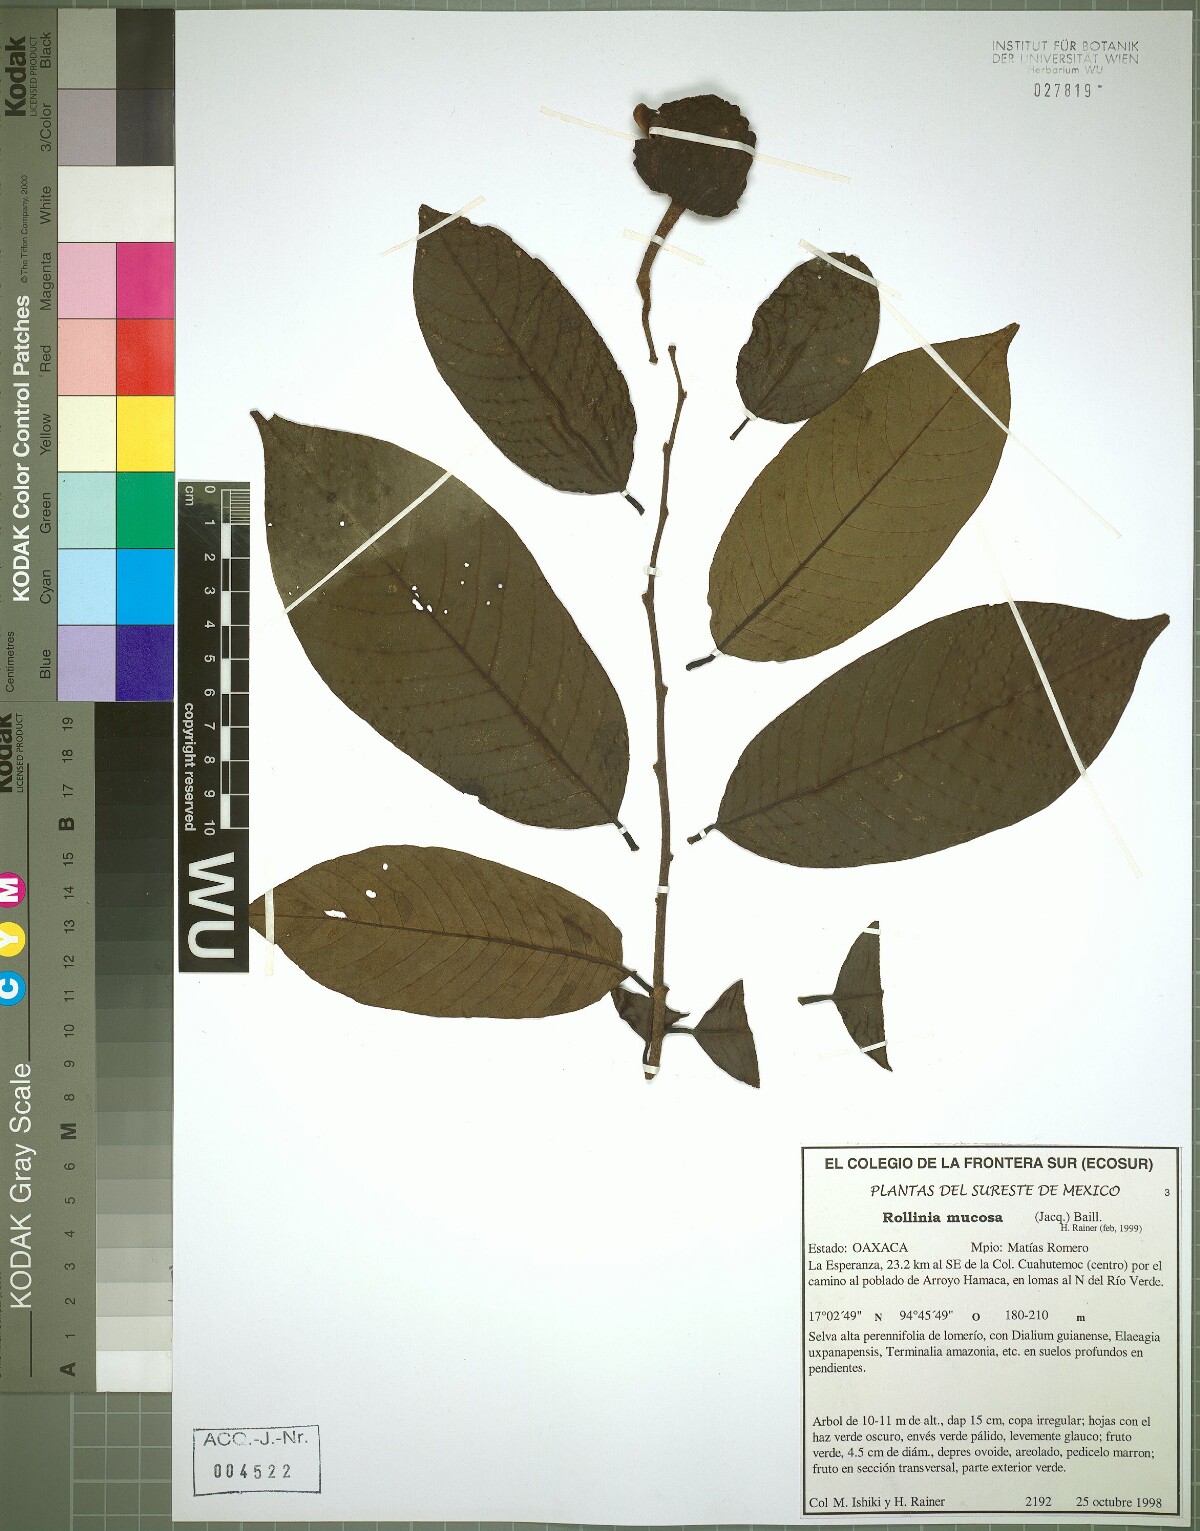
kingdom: Plantae
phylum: Tracheophyta
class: Magnoliopsida
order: Magnoliales
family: Annonaceae
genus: Annona
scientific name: Annona mucosa
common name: Sugar apple
